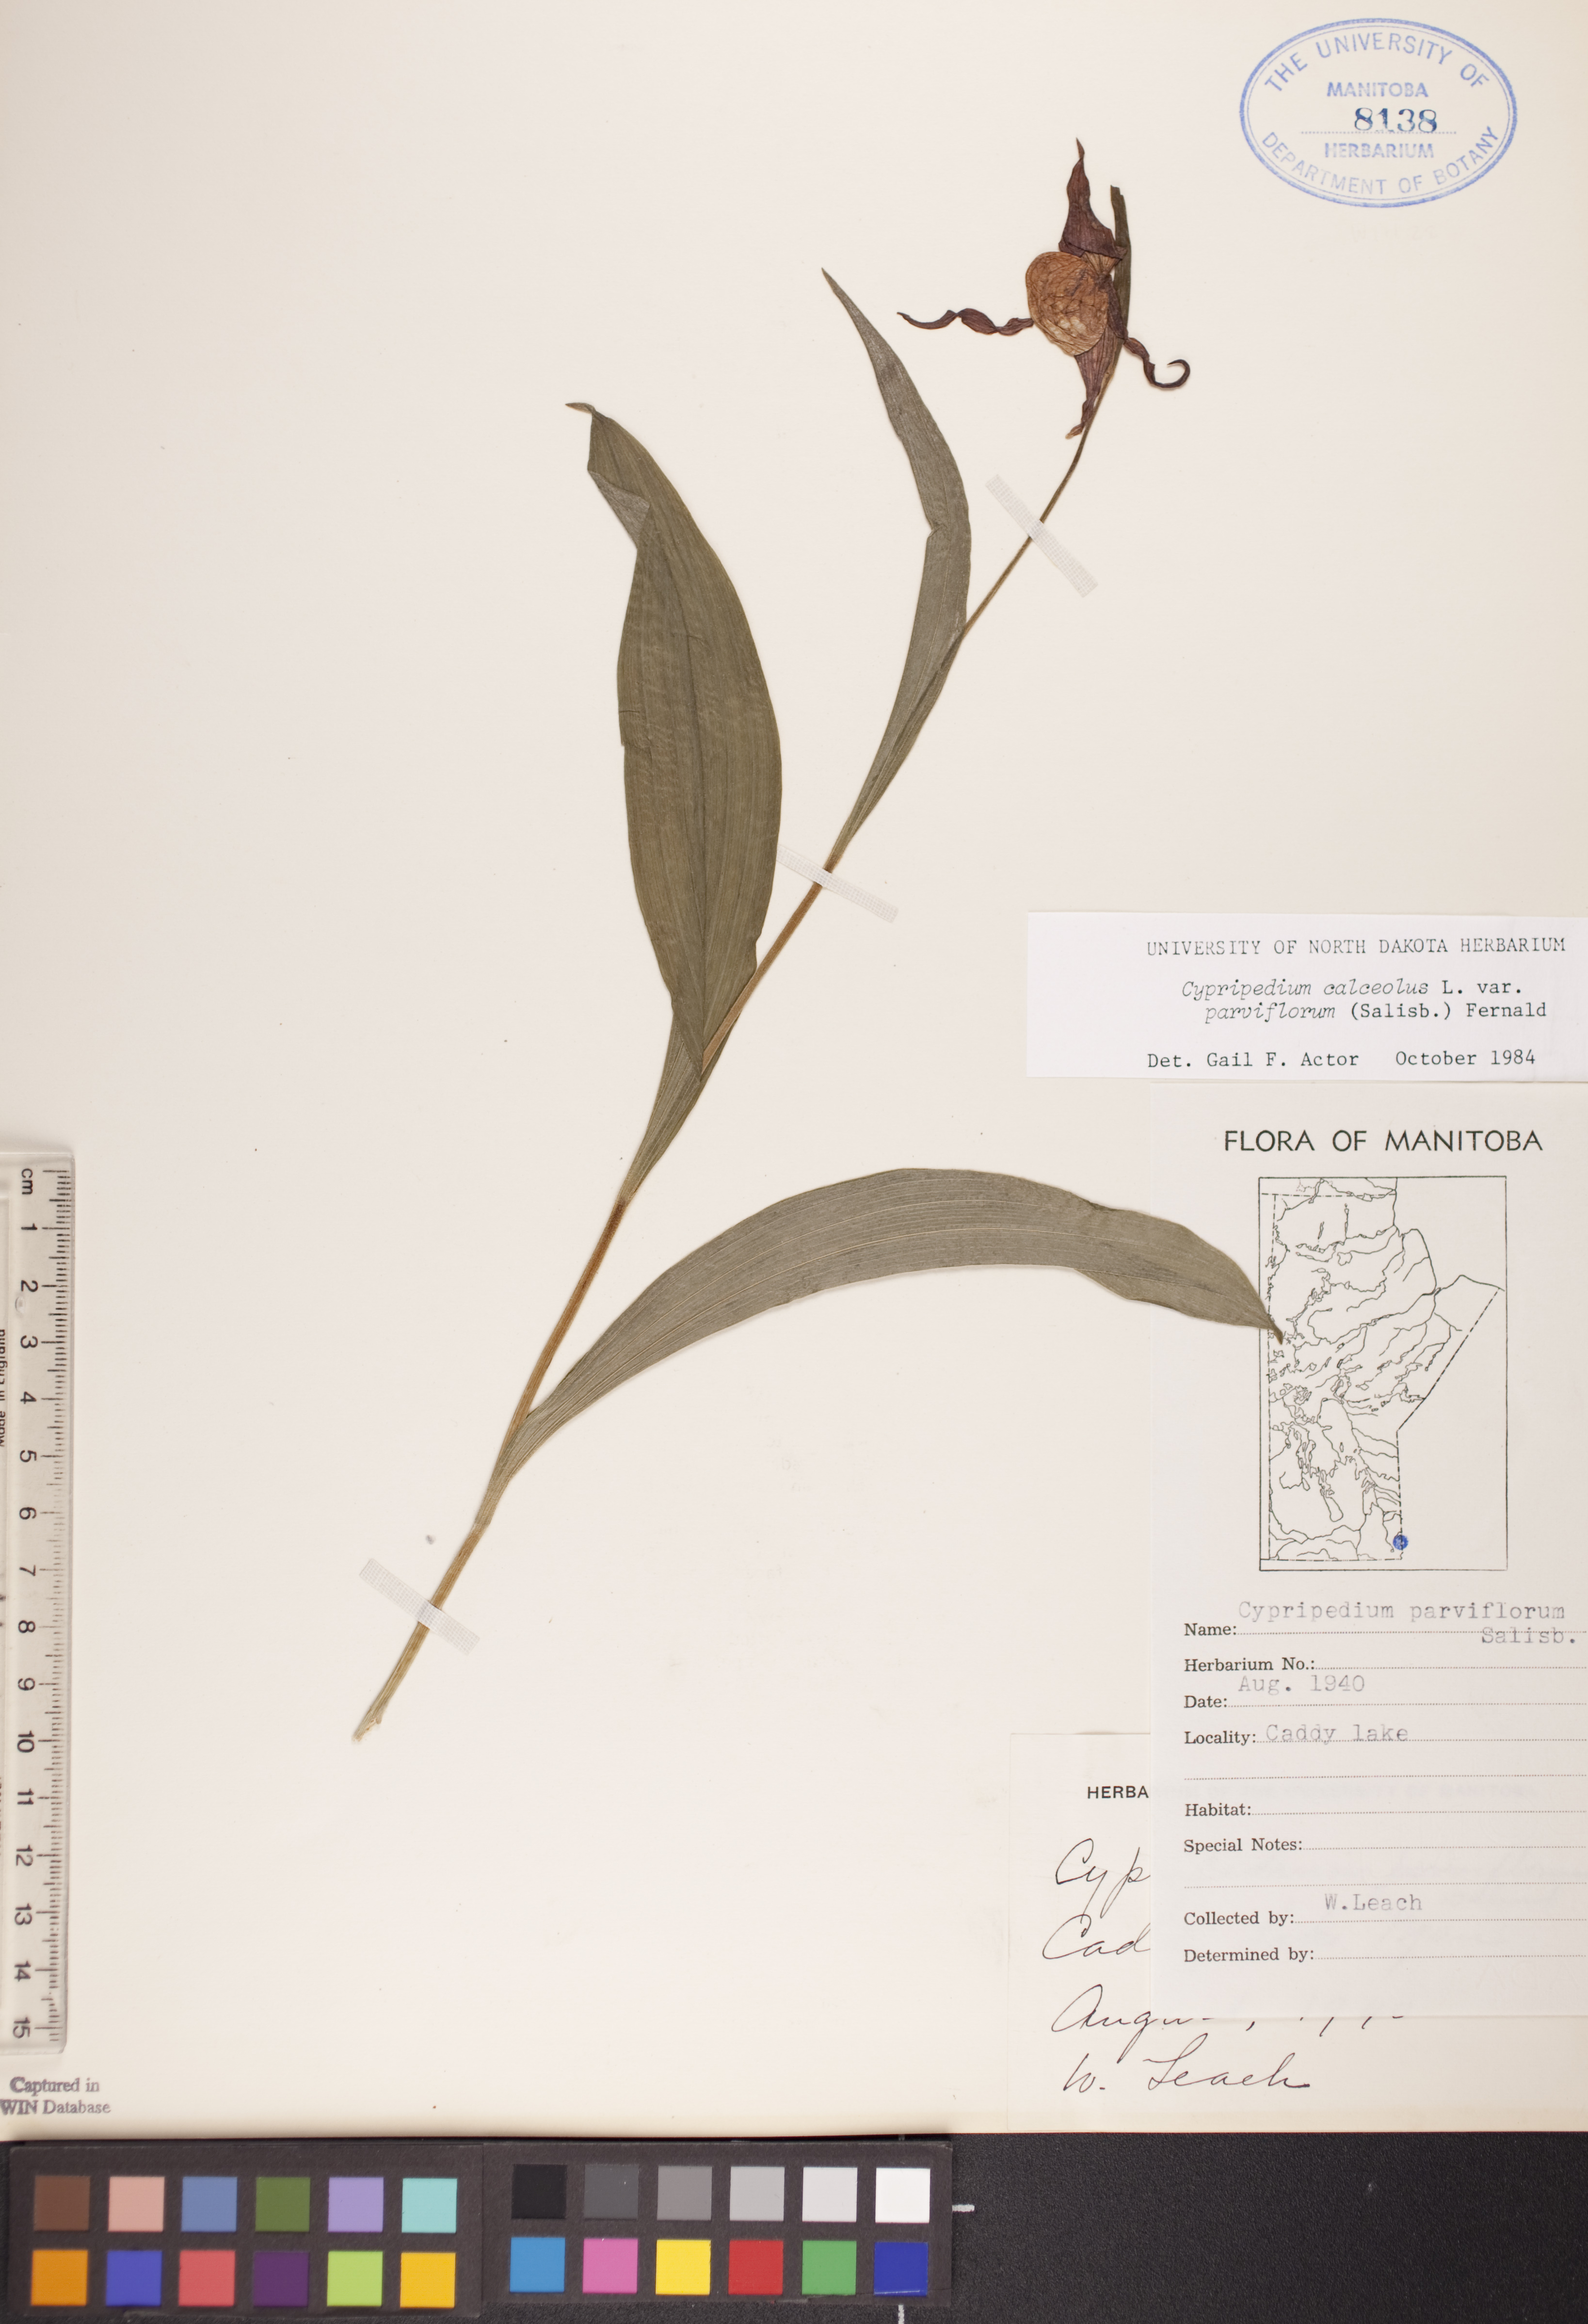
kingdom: Plantae
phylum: Tracheophyta
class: Liliopsida
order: Asparagales
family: Orchidaceae
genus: Cypripedium
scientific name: Cypripedium parviflorum
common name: American yellow lady's-slipper
